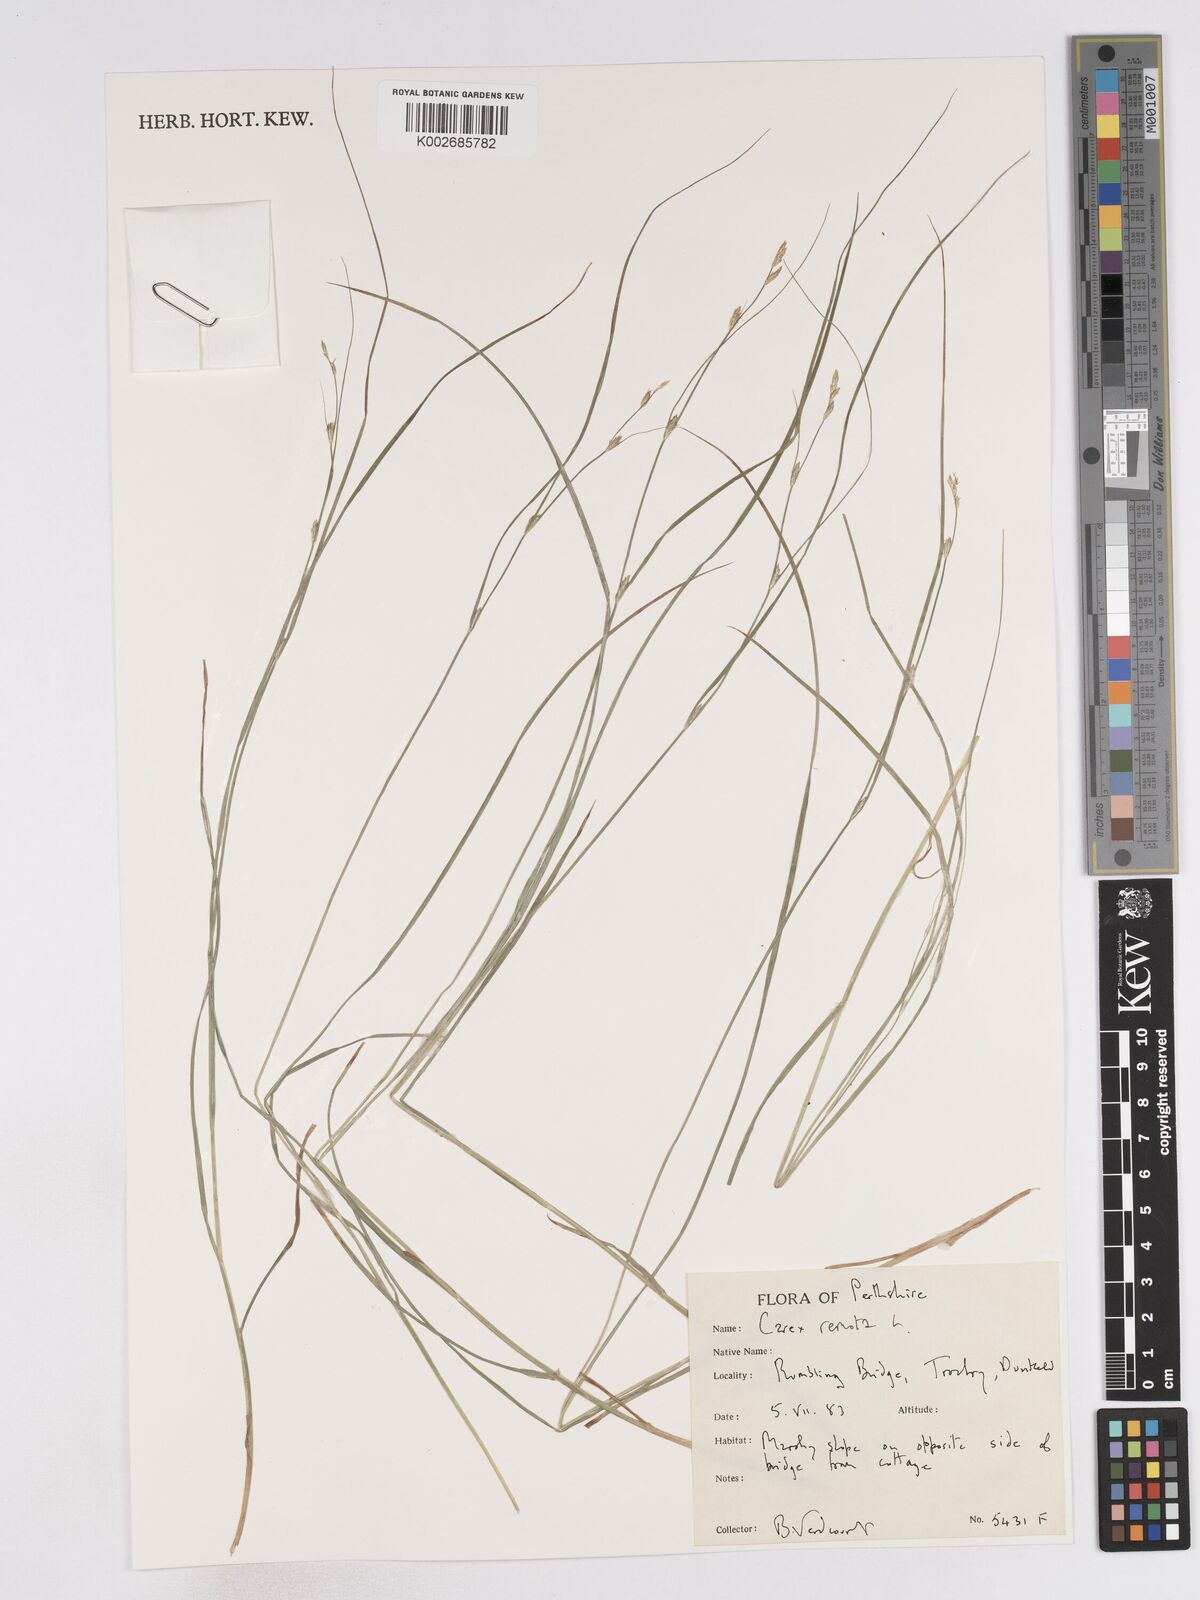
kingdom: Plantae
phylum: Tracheophyta
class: Liliopsida
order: Poales
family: Cyperaceae
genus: Carex
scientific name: Carex remota
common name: Remote sedge
